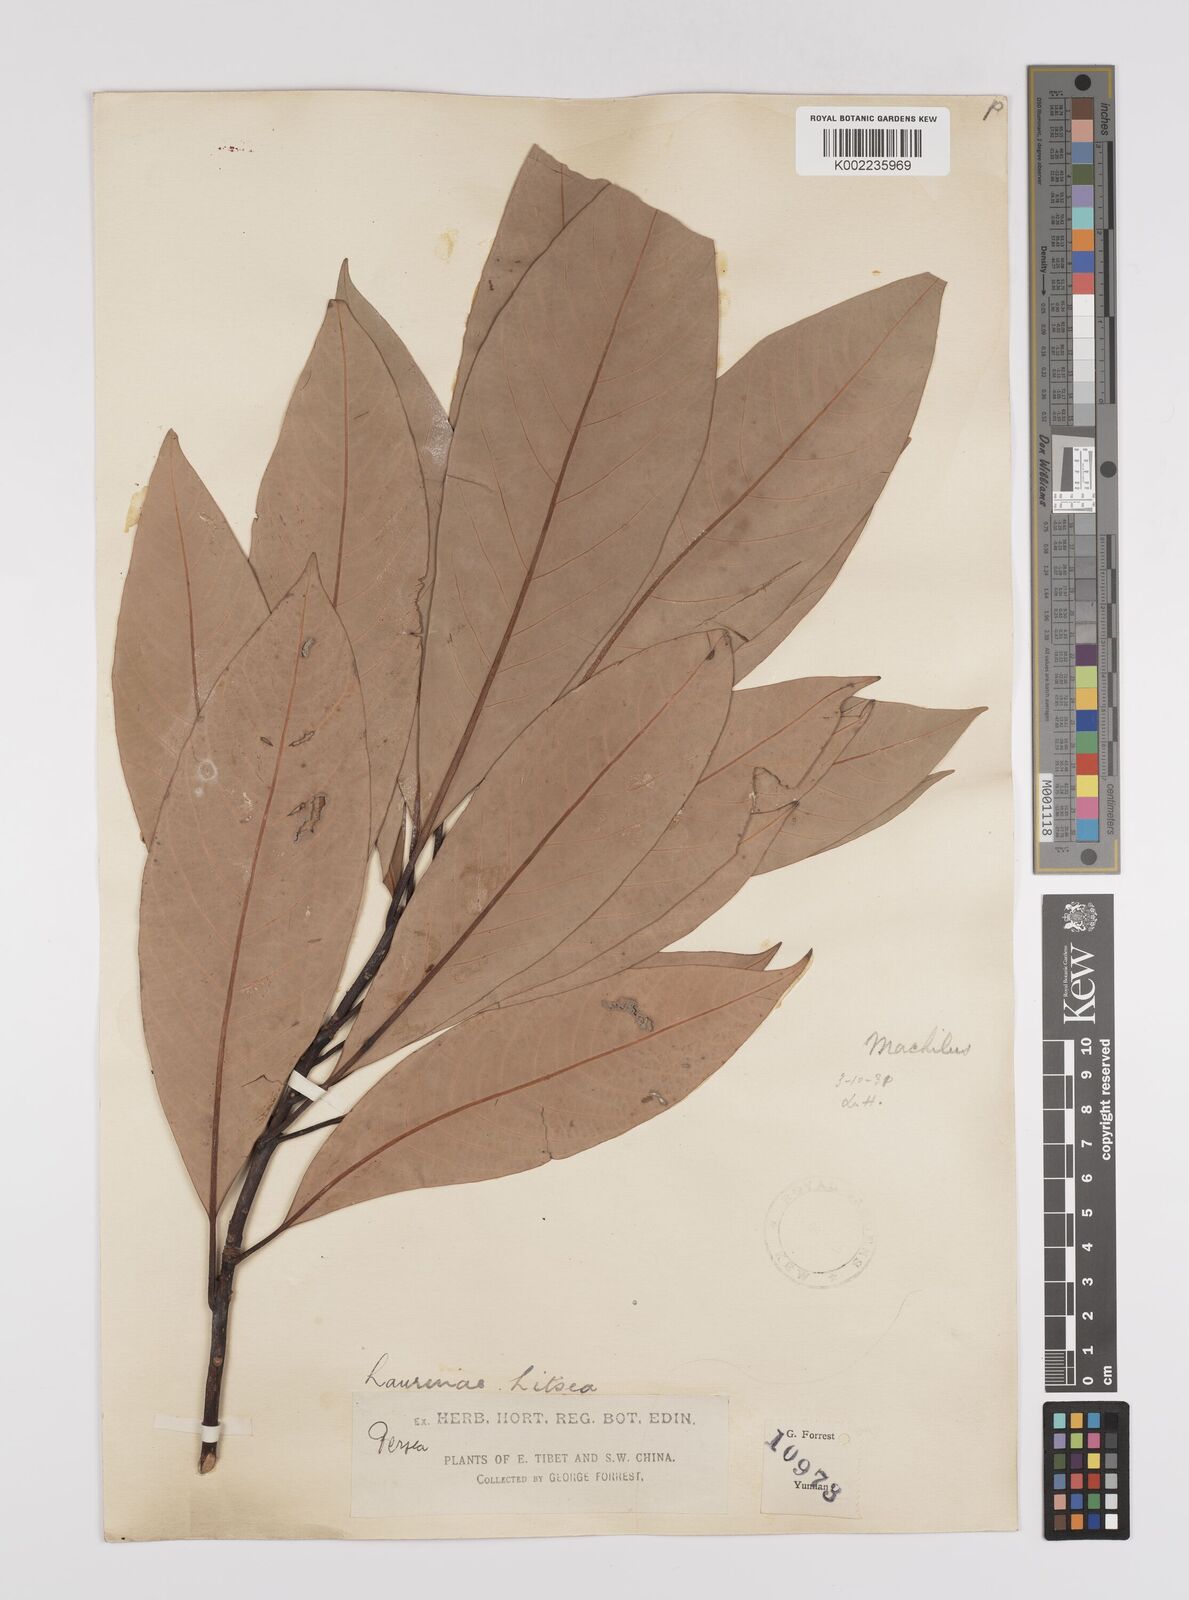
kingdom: Plantae
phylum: Tracheophyta
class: Magnoliopsida
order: Laurales
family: Lauraceae
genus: Persea
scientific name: Persea
